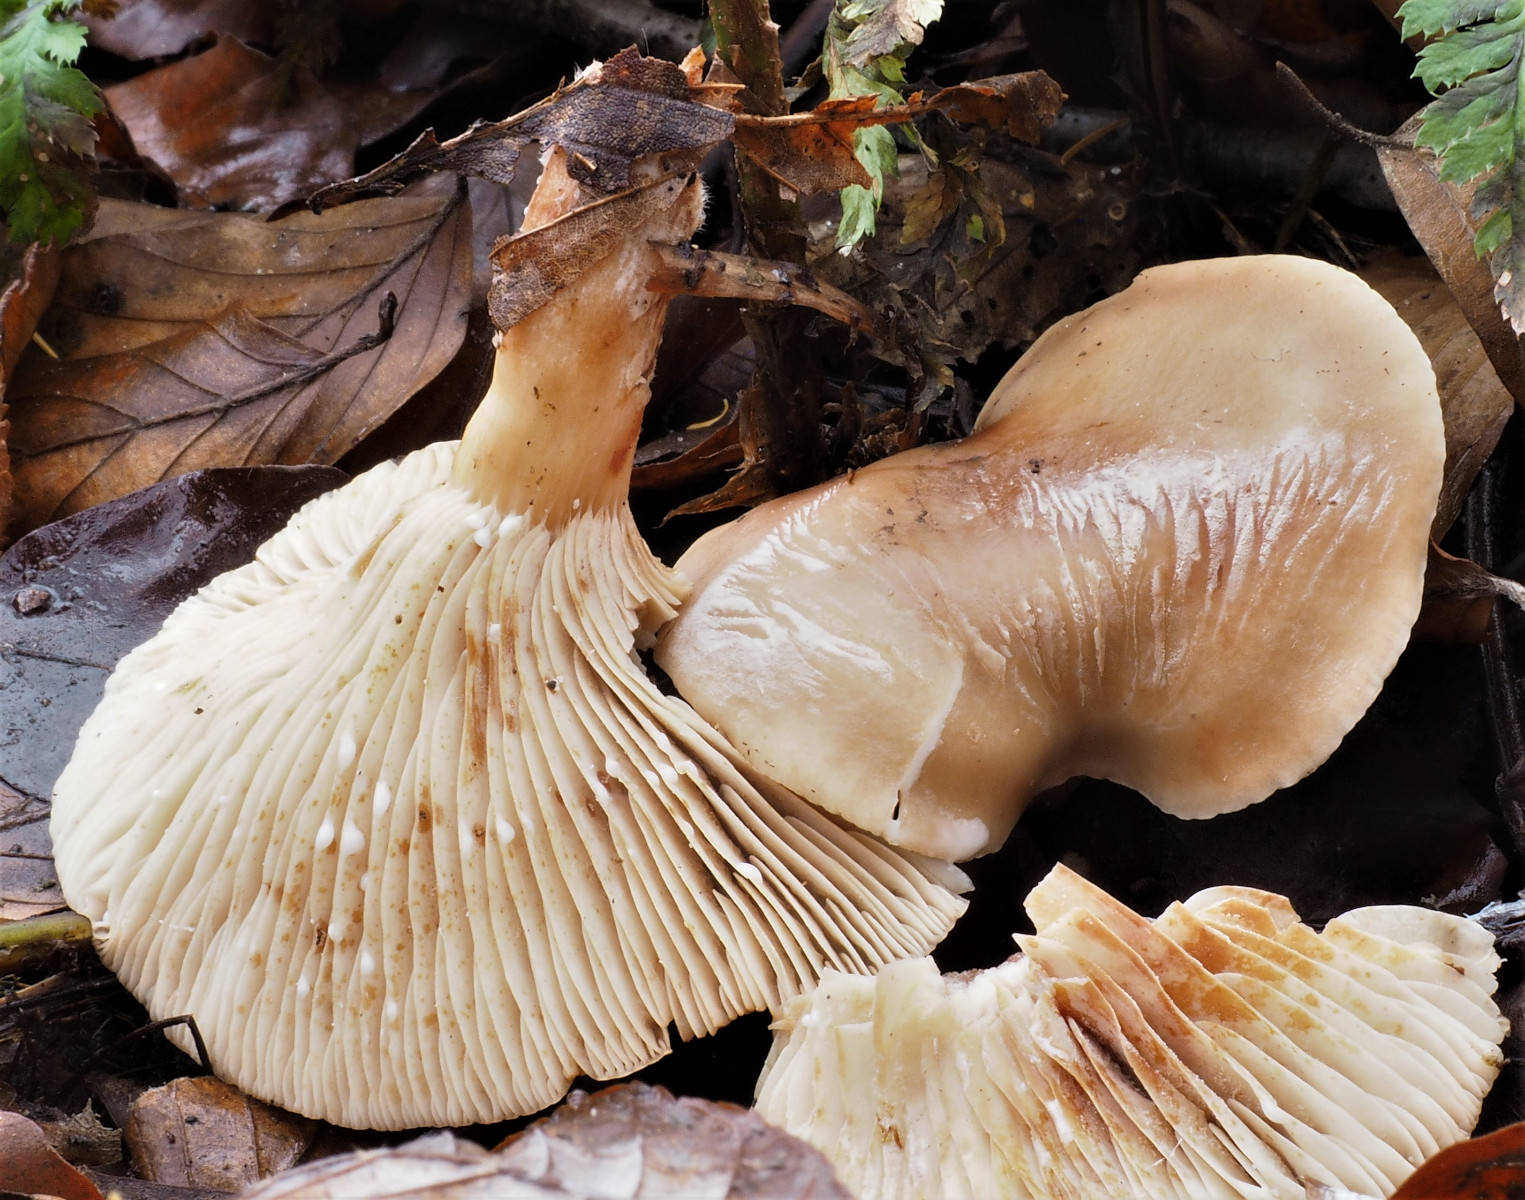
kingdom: Fungi
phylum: Basidiomycota
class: Agaricomycetes
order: Russulales
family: Russulaceae
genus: Lactarius
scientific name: Lactarius
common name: mælkehat
